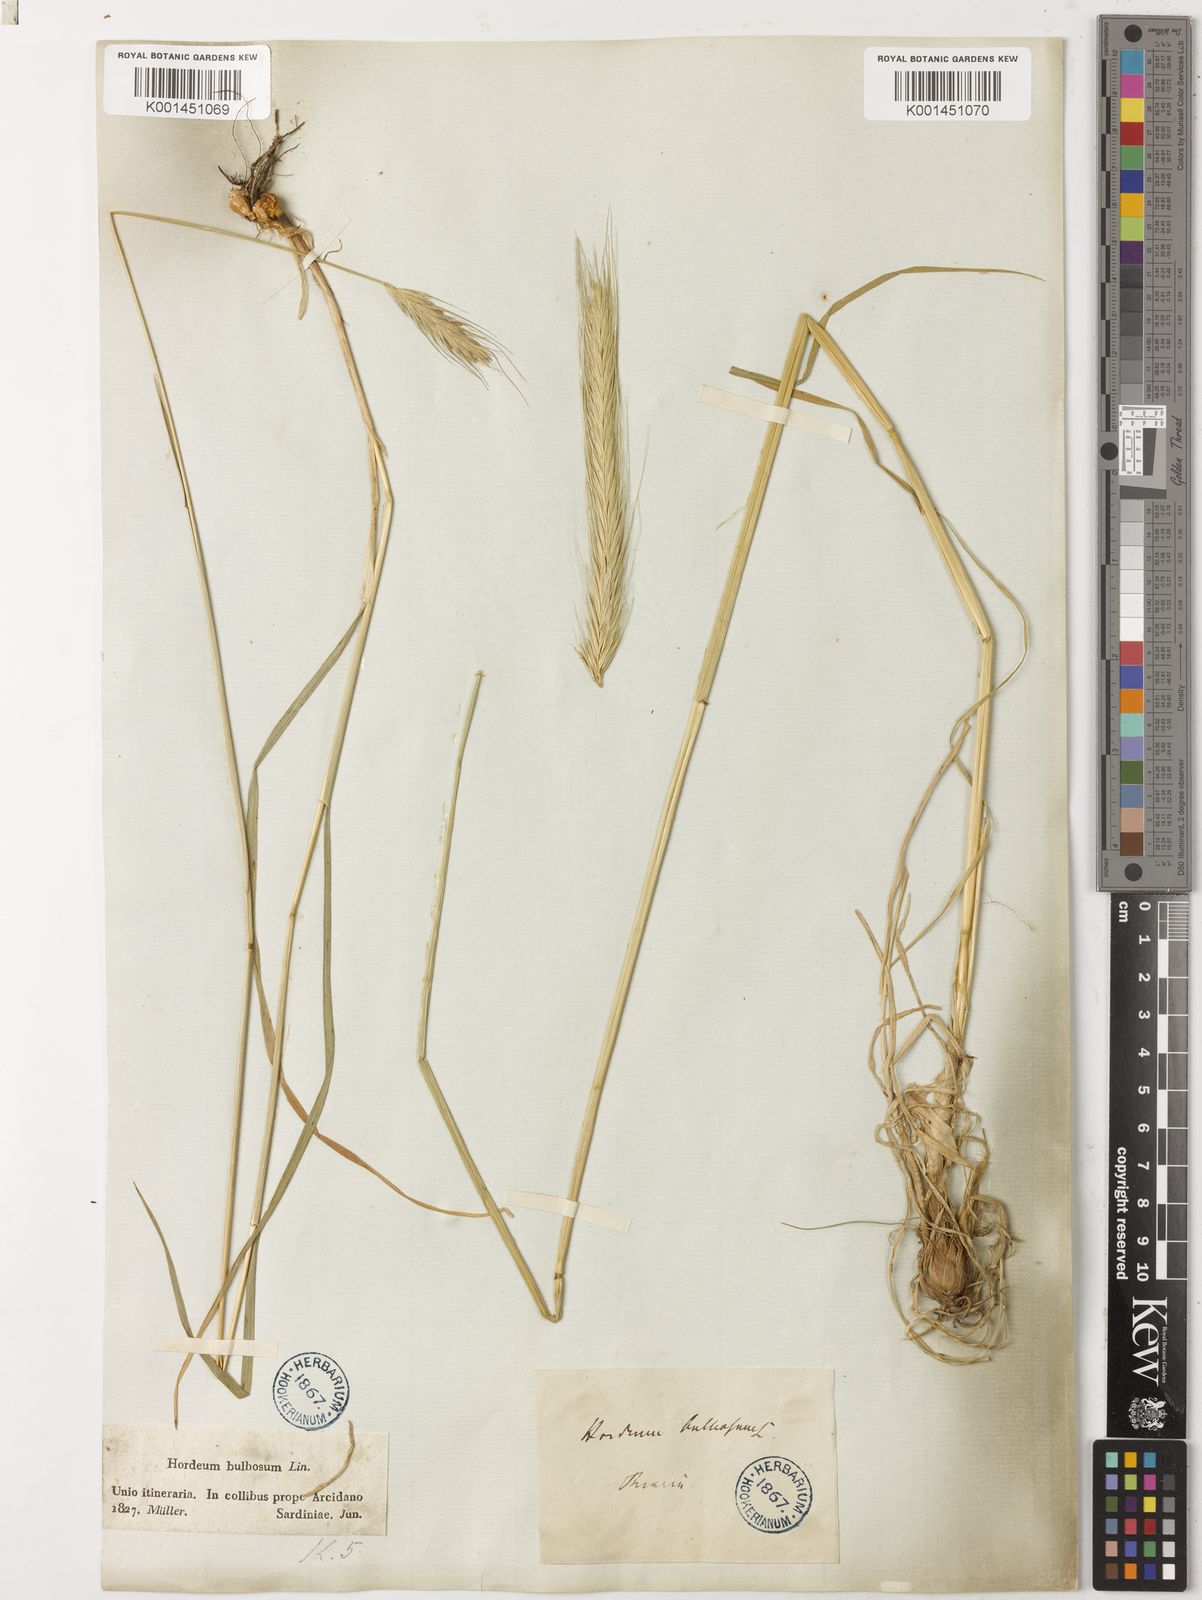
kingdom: Plantae
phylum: Tracheophyta
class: Liliopsida
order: Poales
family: Poaceae
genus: Hordeum
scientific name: Hordeum bulbosum
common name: Bulbous barley
